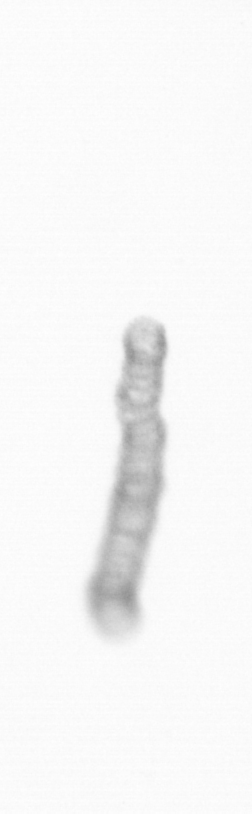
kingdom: Chromista
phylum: Ochrophyta
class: Bacillariophyceae
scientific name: Bacillariophyceae
